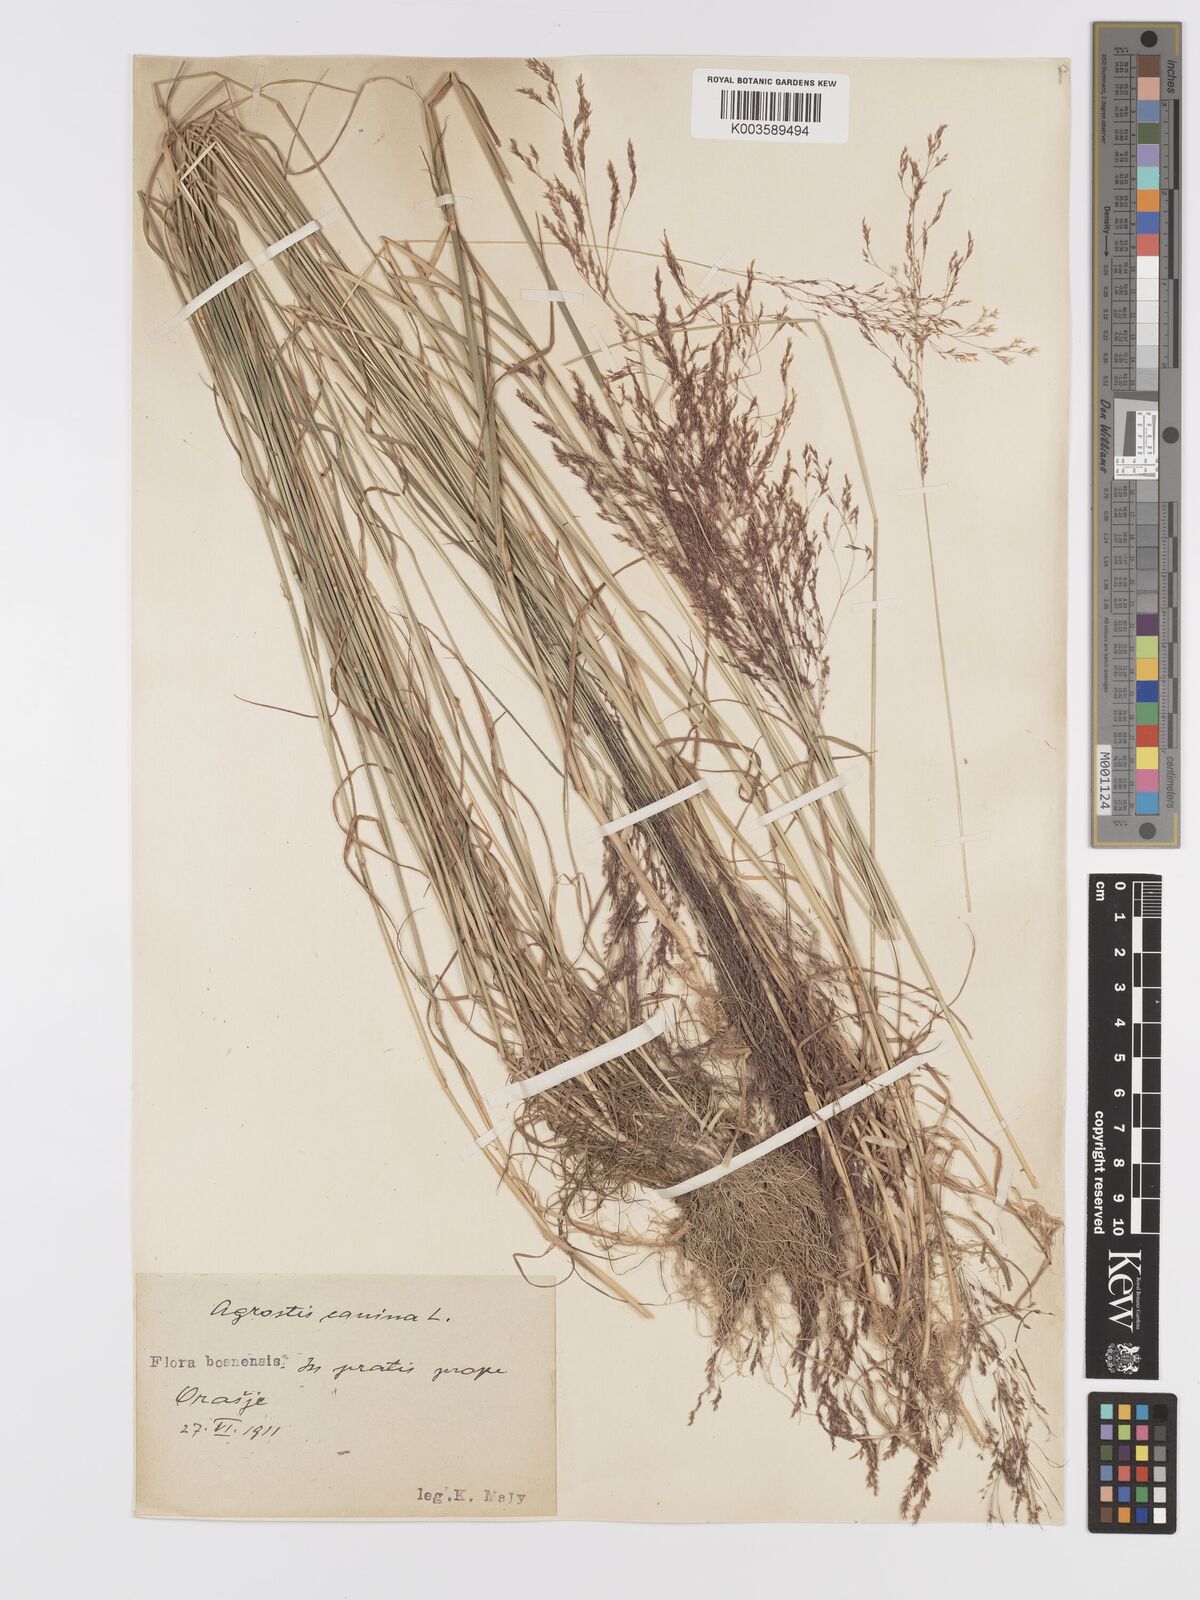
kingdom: Plantae
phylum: Tracheophyta
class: Liliopsida
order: Poales
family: Poaceae
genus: Agrostis
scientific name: Agrostis canina
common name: Velvet bent
